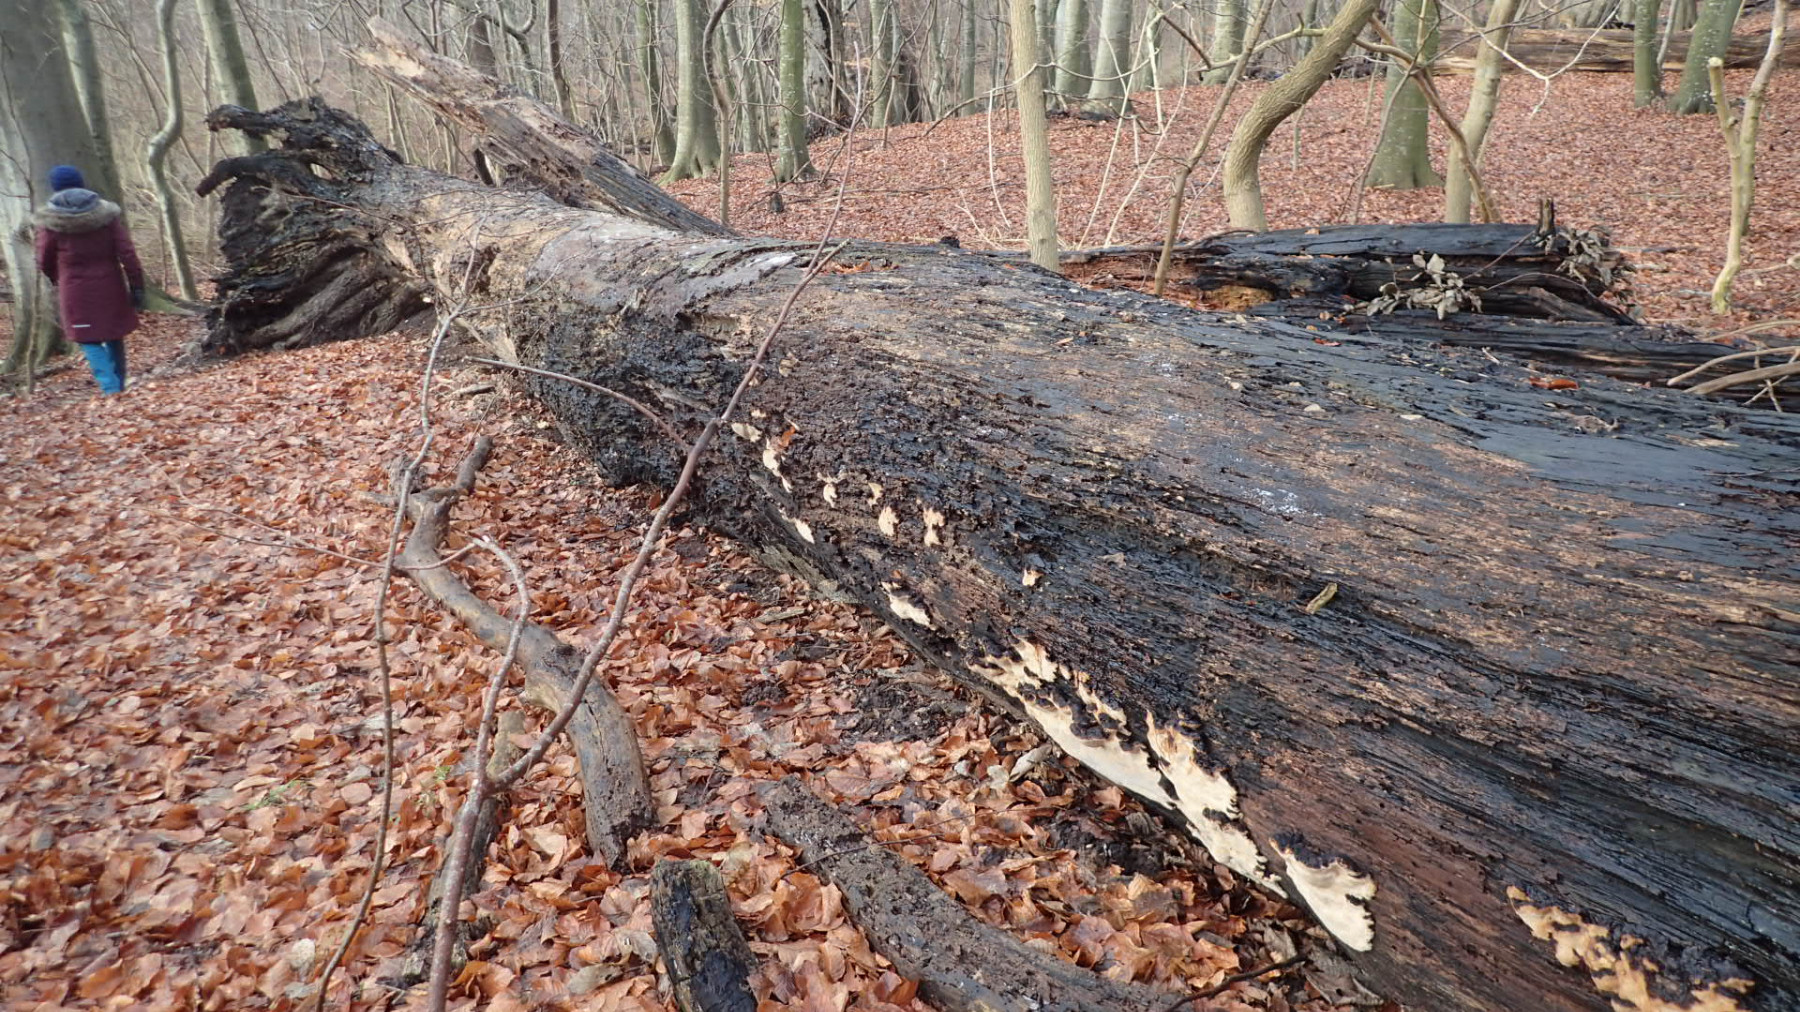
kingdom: Fungi
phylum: Basidiomycota
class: Agaricomycetes
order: Polyporales
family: Ischnodermataceae
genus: Ischnoderma
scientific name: Ischnoderma resinosum
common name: løv-tjæreporesvamp
